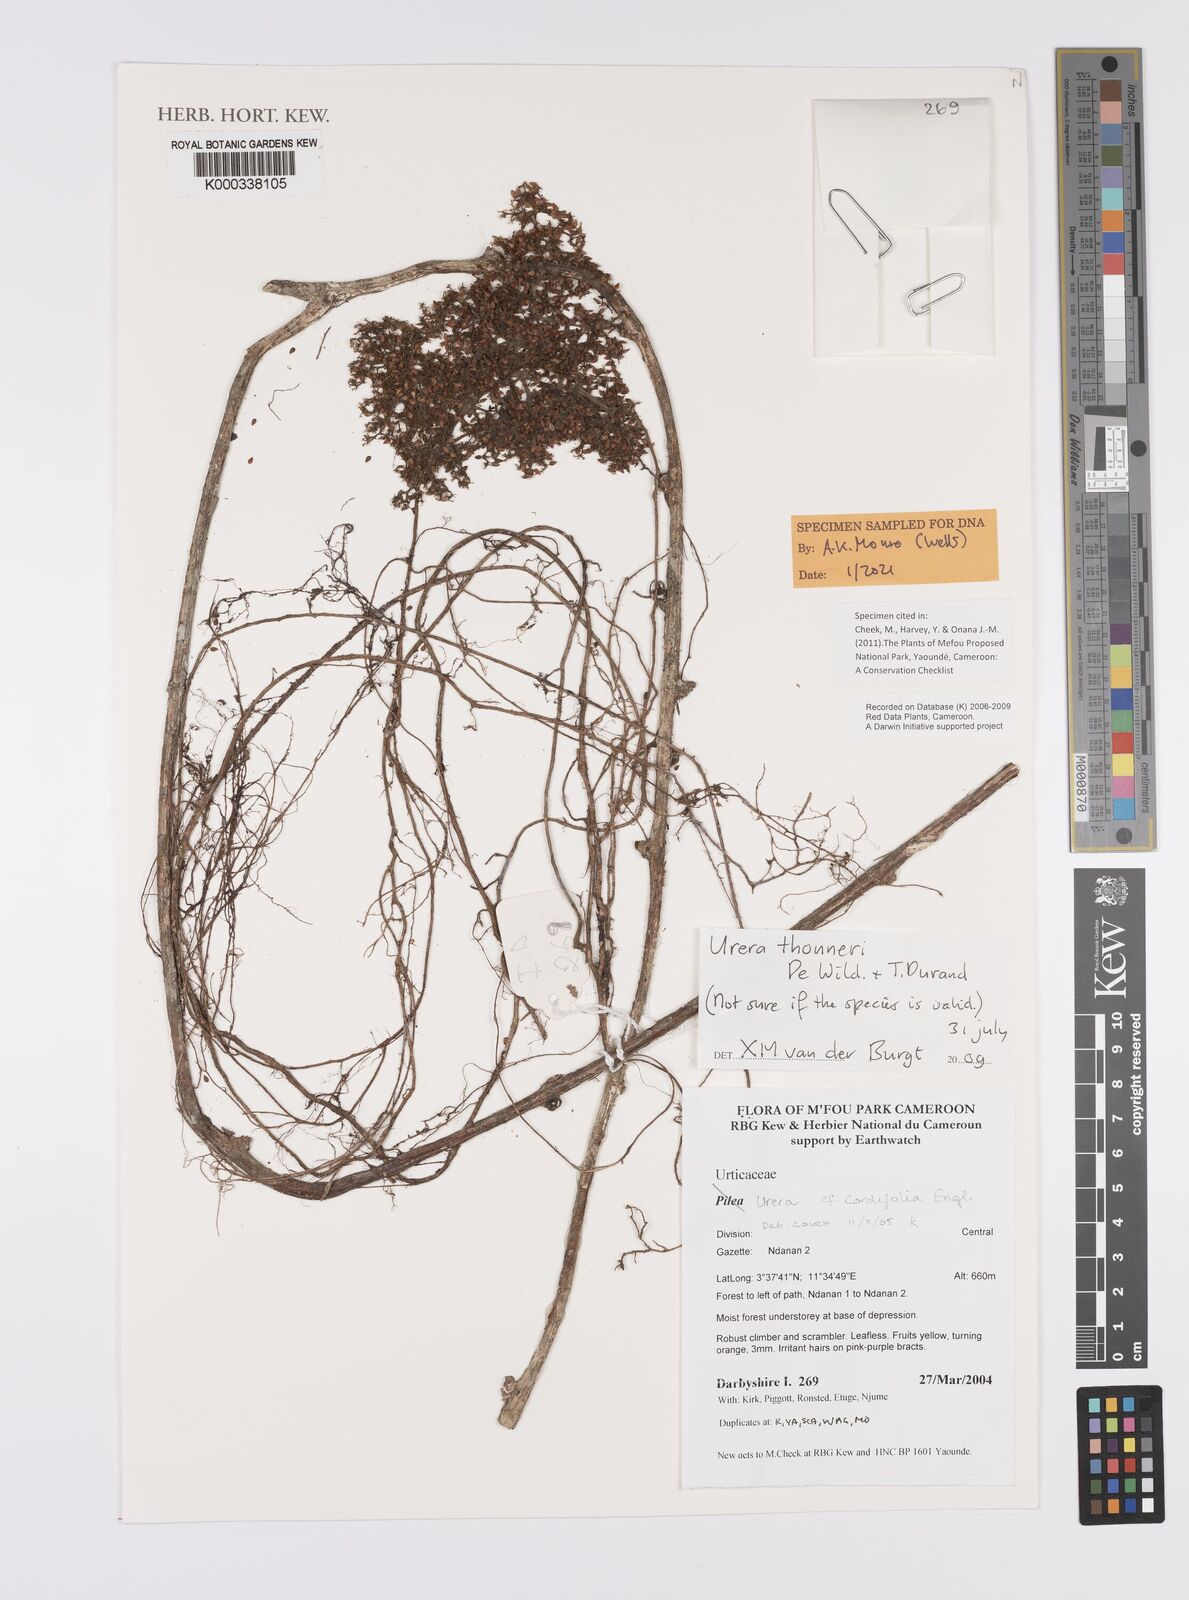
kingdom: Plantae
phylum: Tracheophyta
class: Magnoliopsida
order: Rosales
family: Urticaceae
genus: Scepocarpus
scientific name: Scepocarpus thonneri
